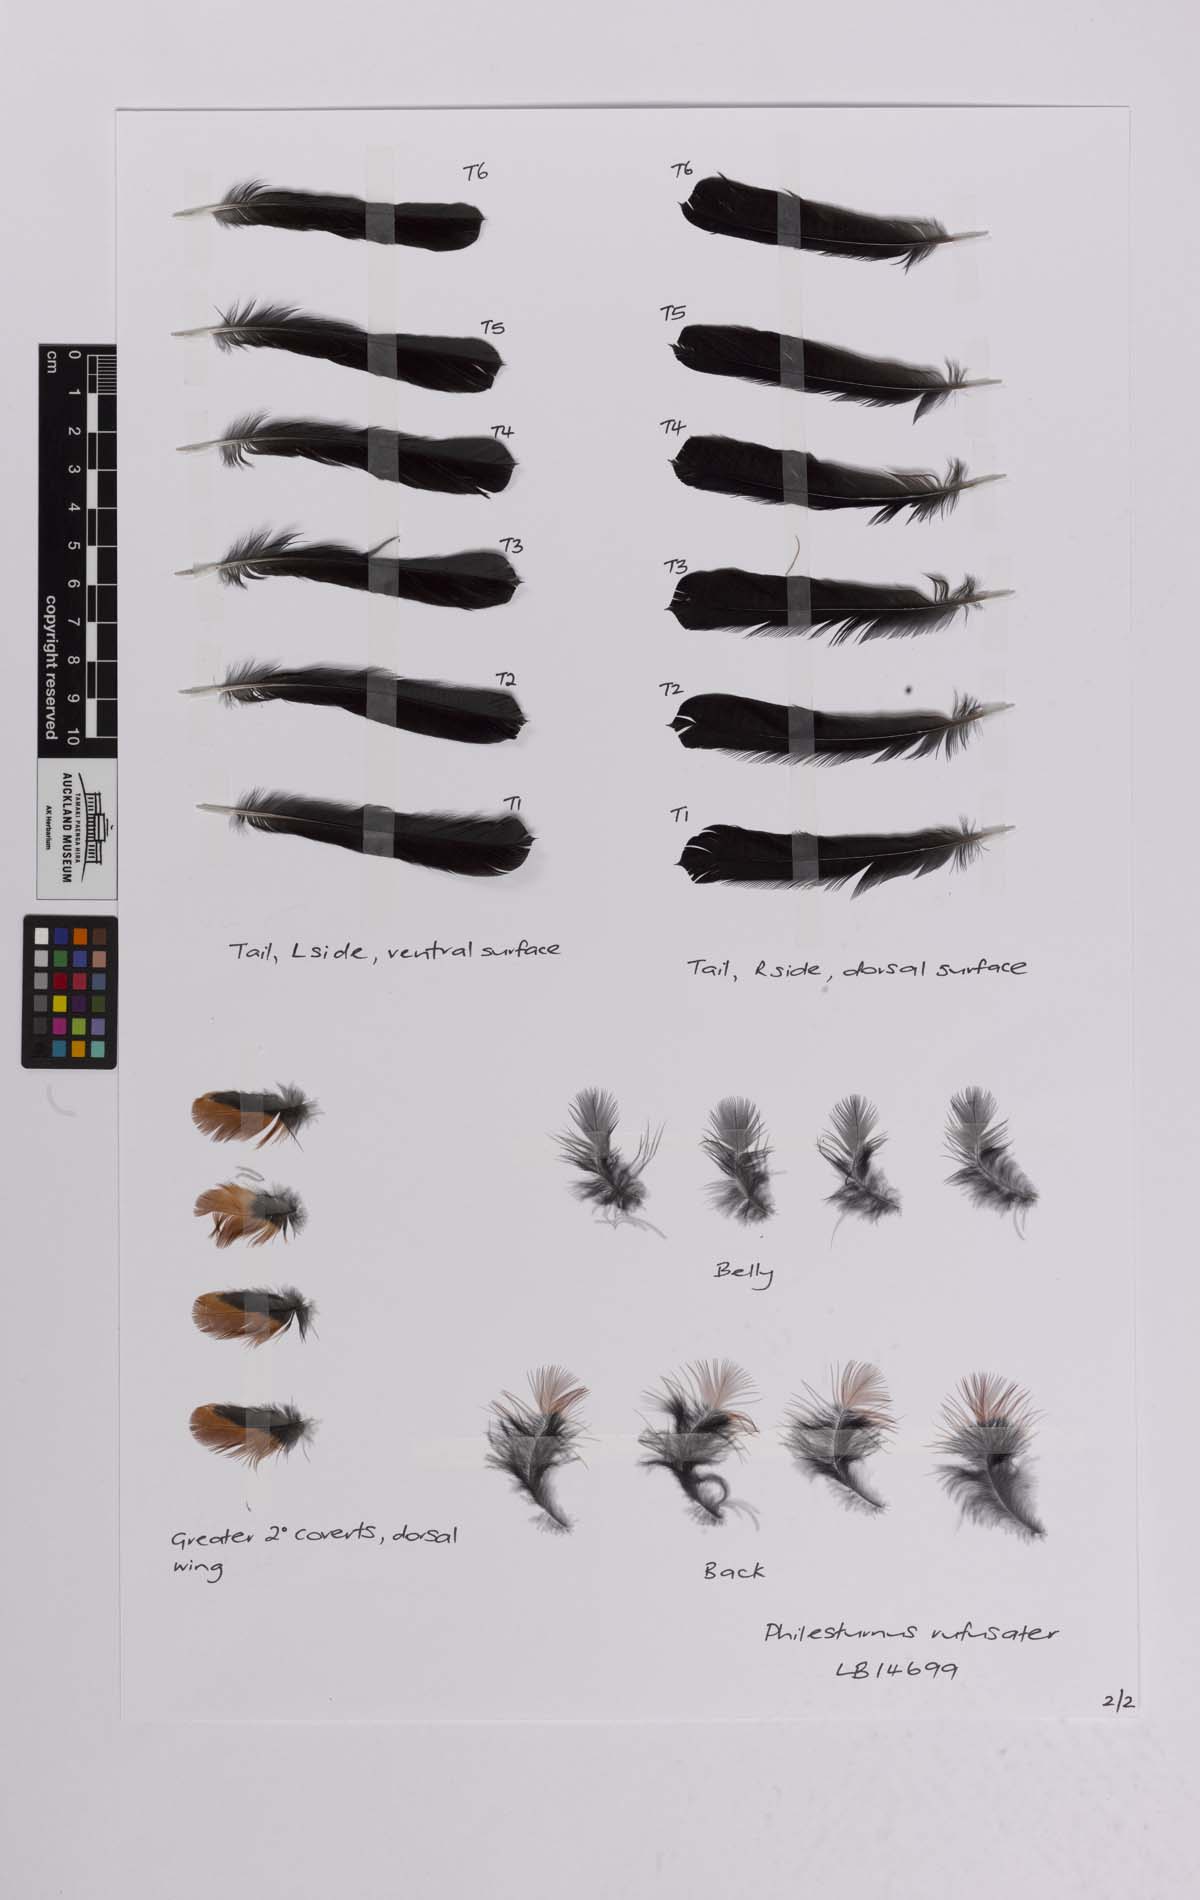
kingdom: Animalia
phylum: Chordata
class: Aves
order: Passeriformes
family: Callaeatidae
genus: Philesturnus
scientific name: Philesturnus carunculatus
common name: South island saddleback
